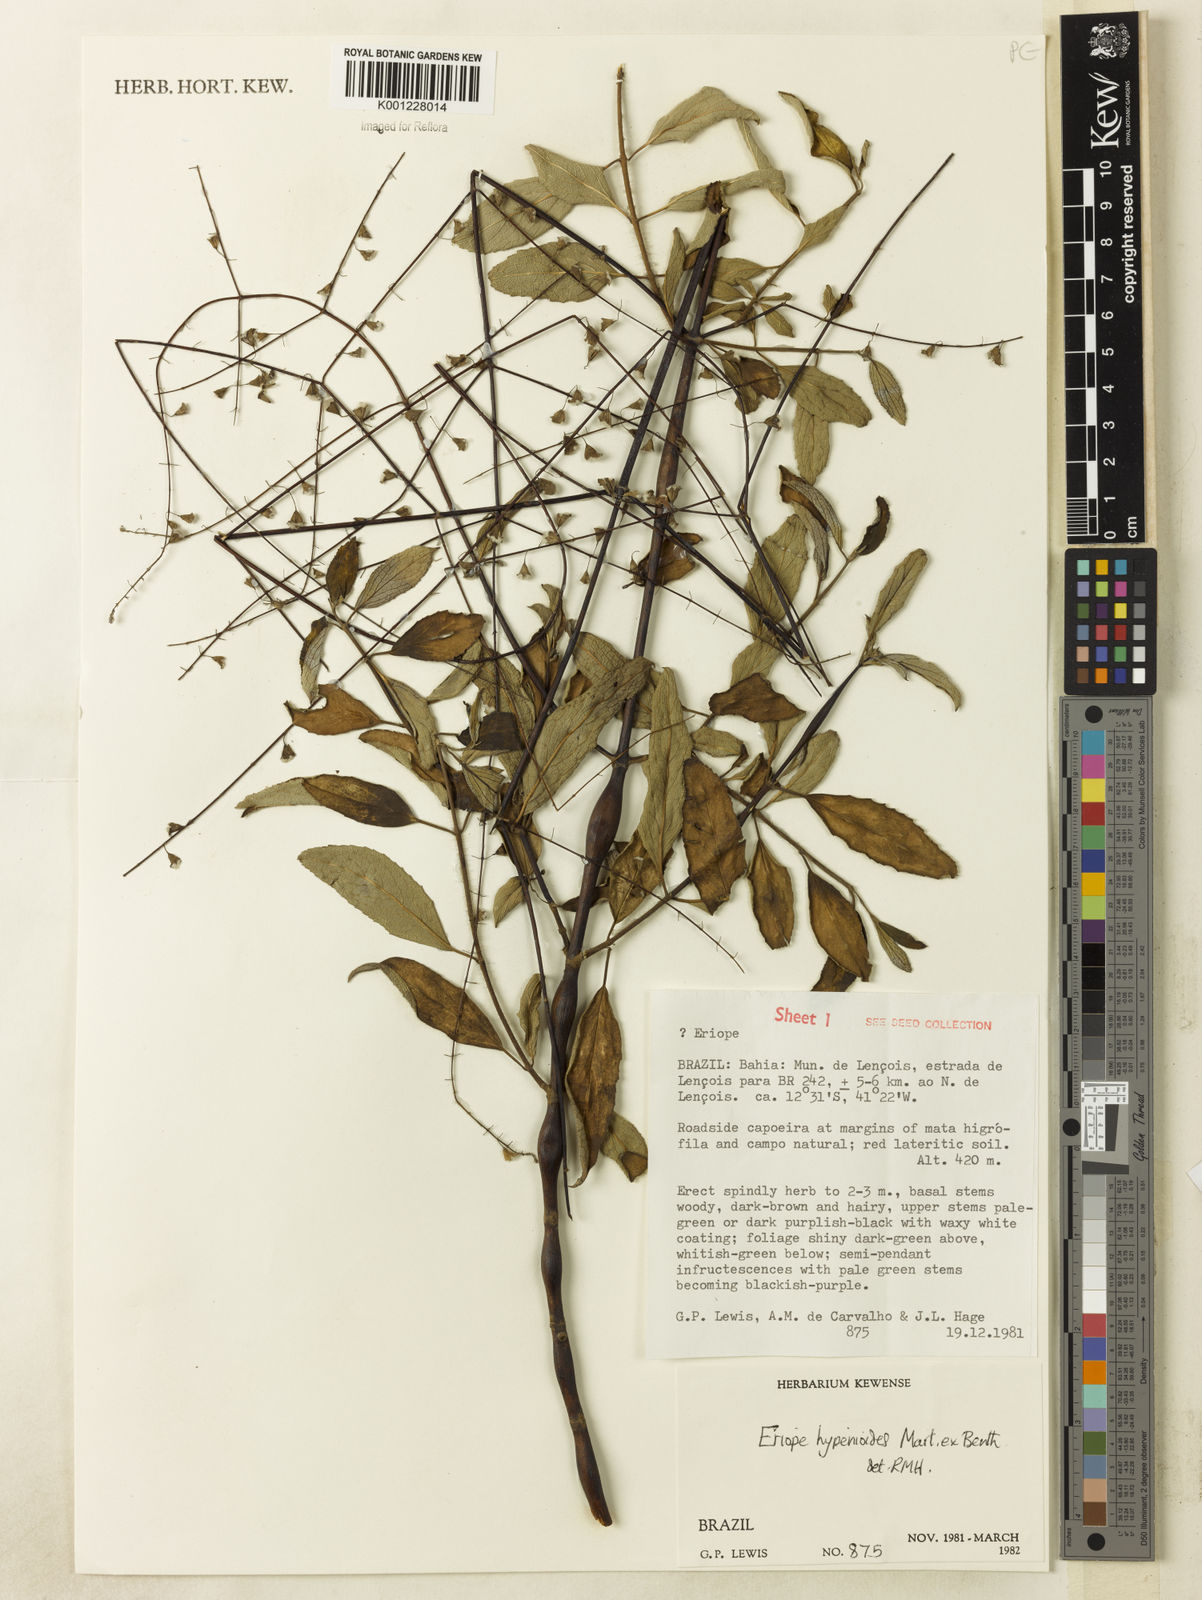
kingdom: Plantae
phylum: Tracheophyta
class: Magnoliopsida
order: Lamiales
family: Lamiaceae
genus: Eriope
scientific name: Eriope hypenioides
